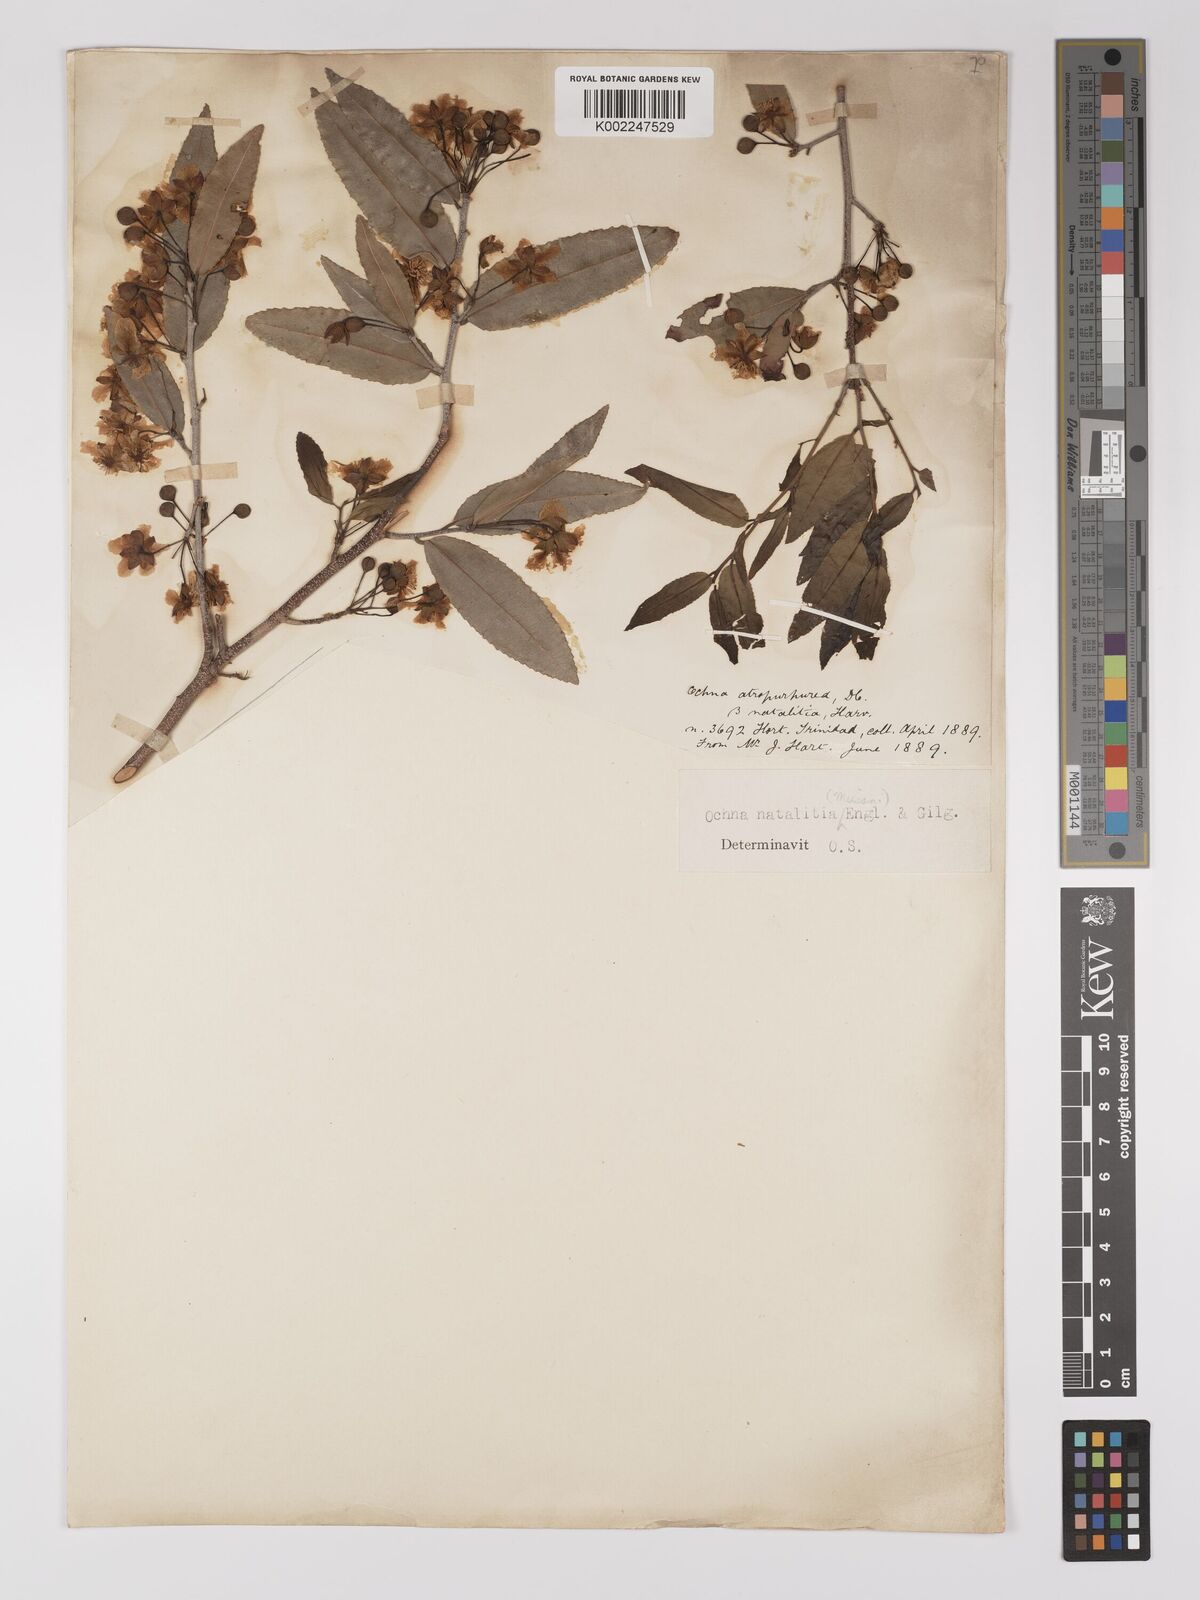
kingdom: Plantae
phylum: Tracheophyta
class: Magnoliopsida
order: Malpighiales
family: Ochnaceae
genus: Ochna
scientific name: Ochna natalitia
